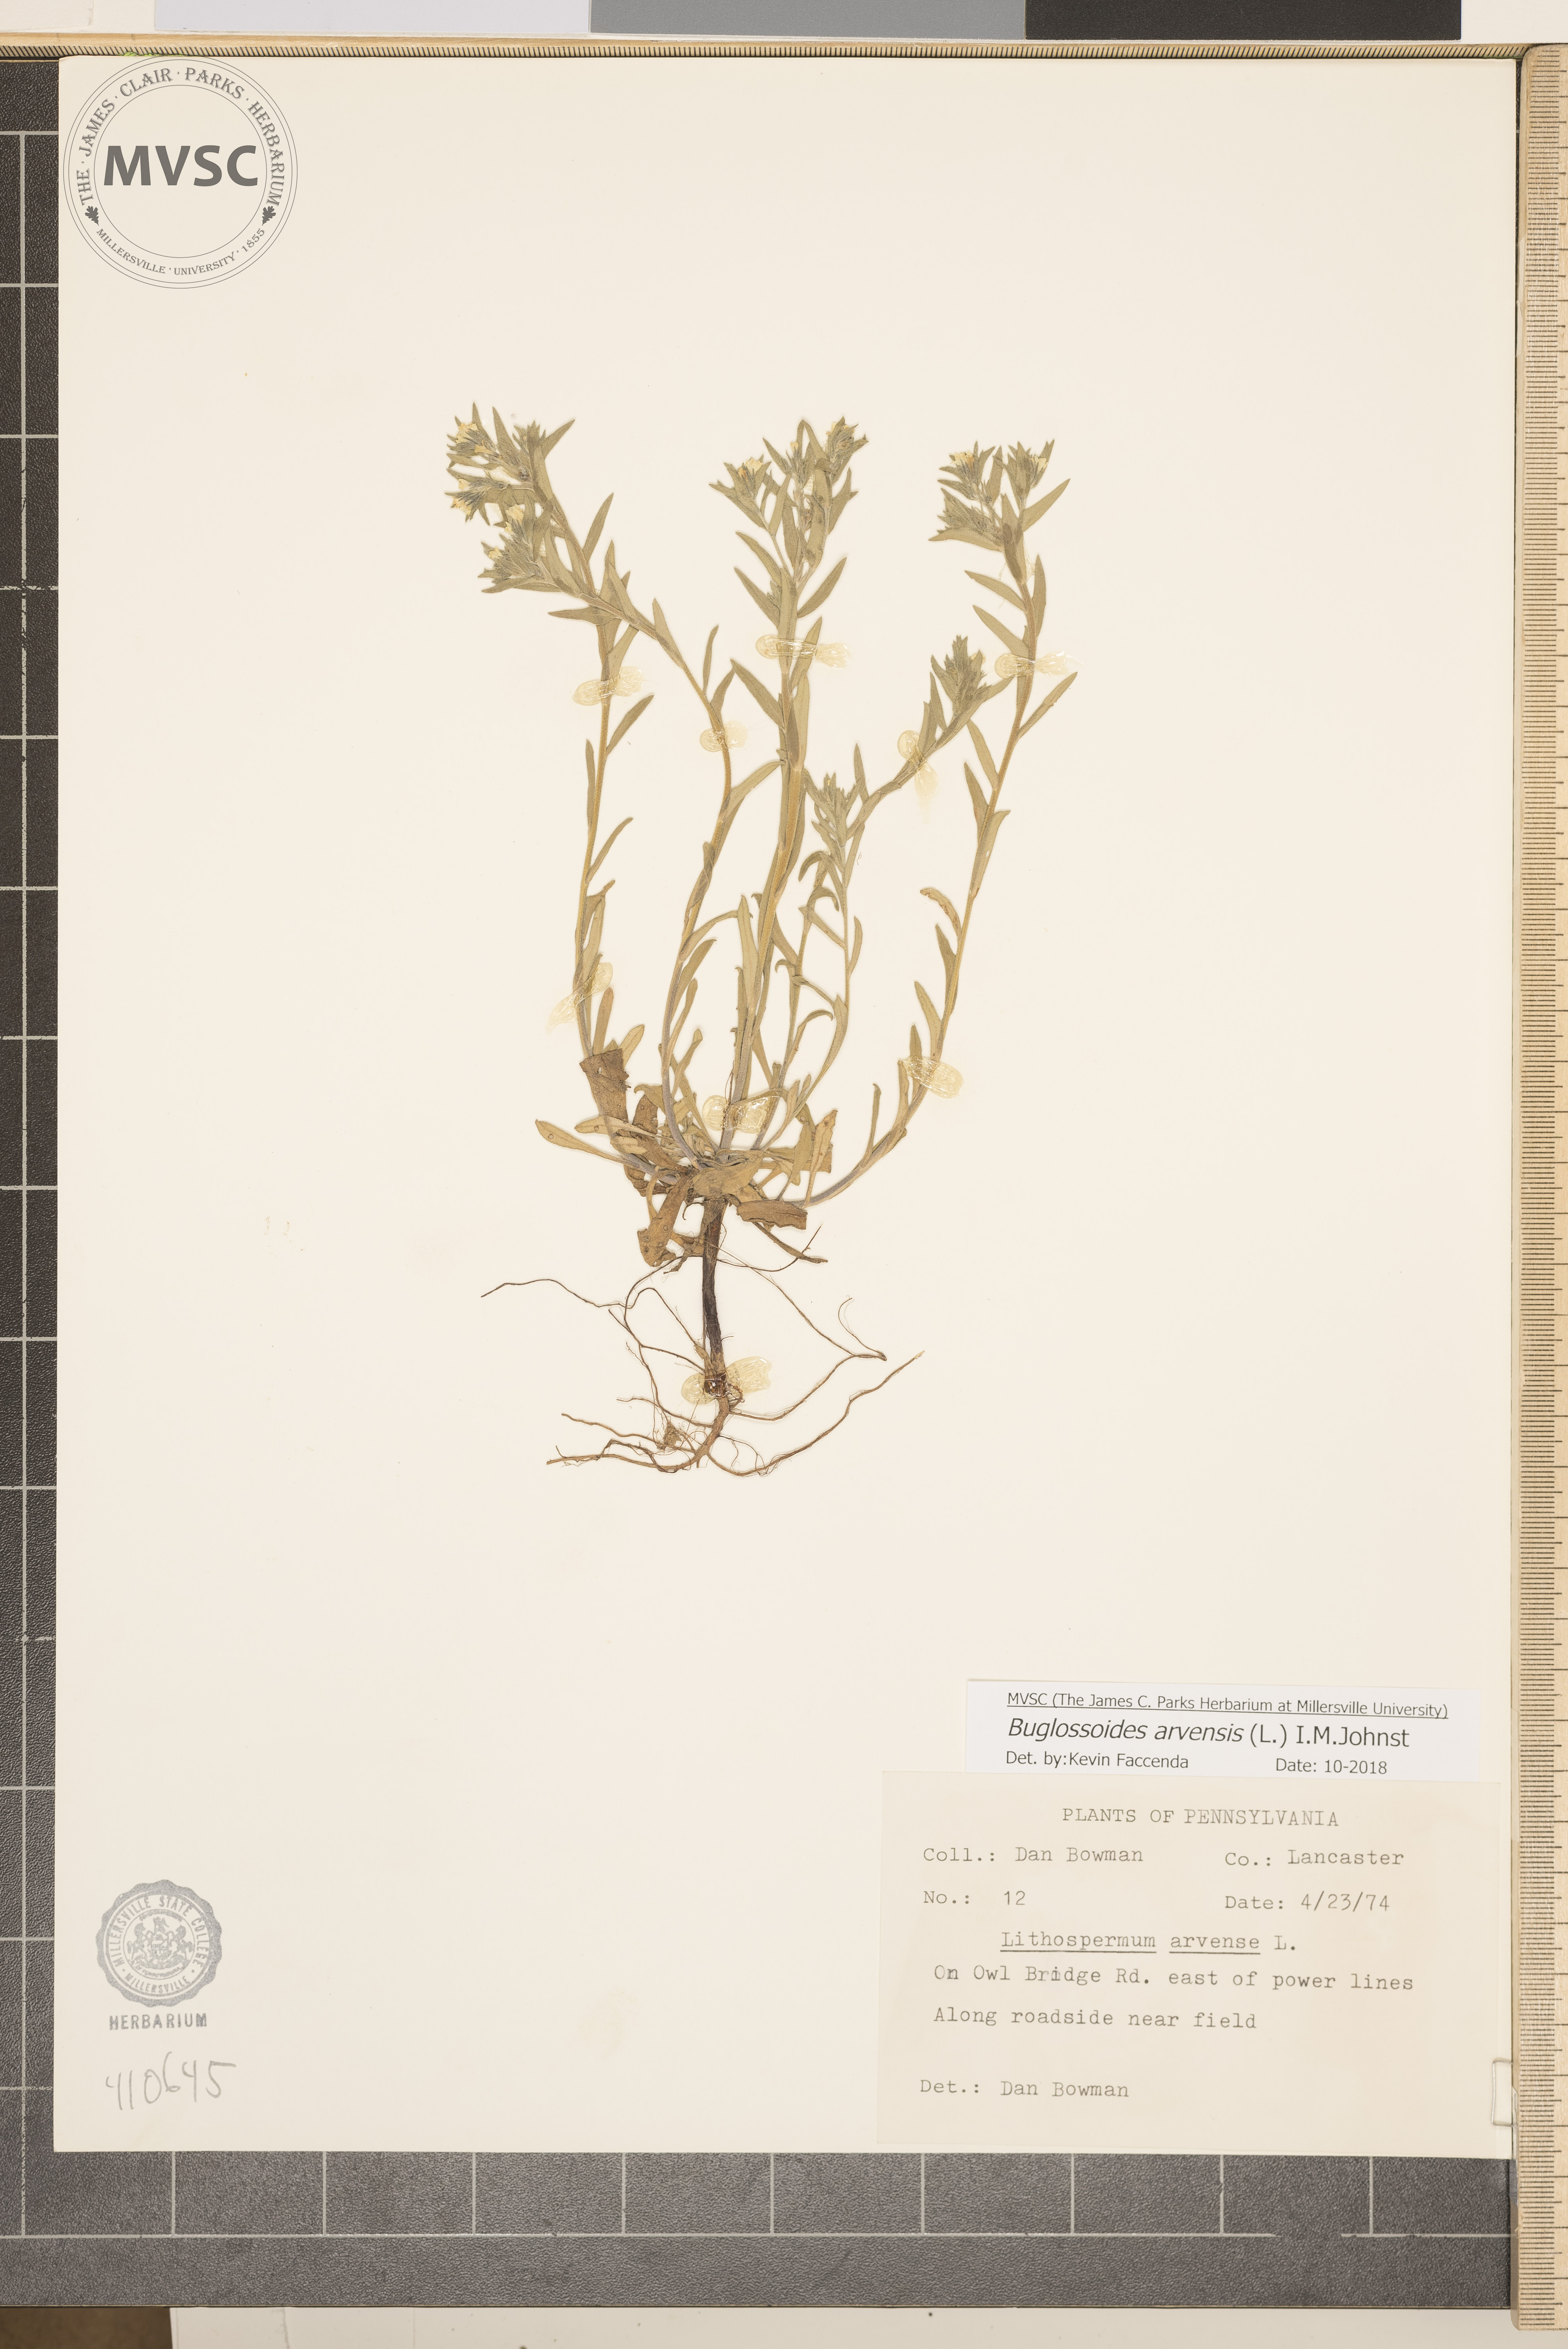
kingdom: Plantae
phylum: Tracheophyta
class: Magnoliopsida
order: Boraginales
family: Boraginaceae
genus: Buglossoides
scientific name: Buglossoides arvensis
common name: Corn gromwell
